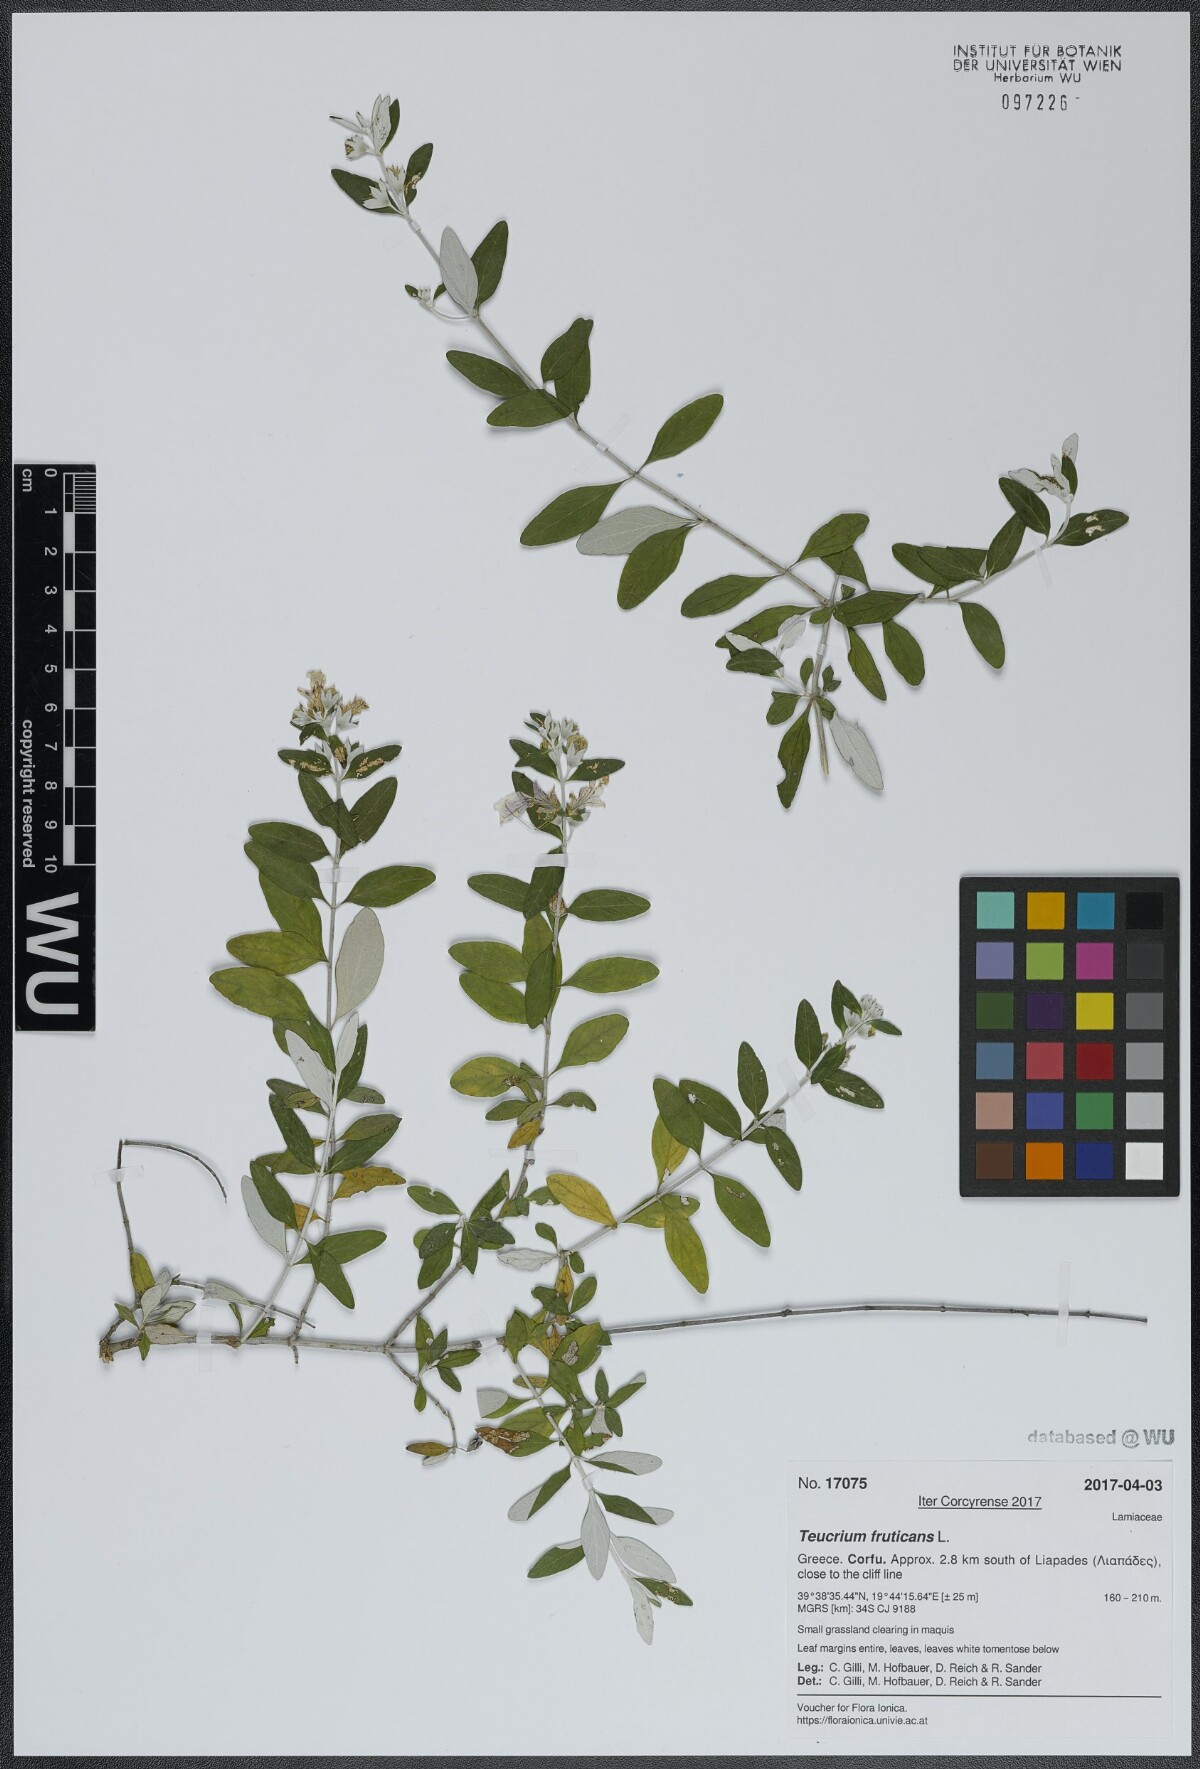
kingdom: Plantae
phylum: Tracheophyta
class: Magnoliopsida
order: Lamiales
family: Lamiaceae
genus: Teucrium
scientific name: Teucrium fruticans
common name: Shrubby germander
